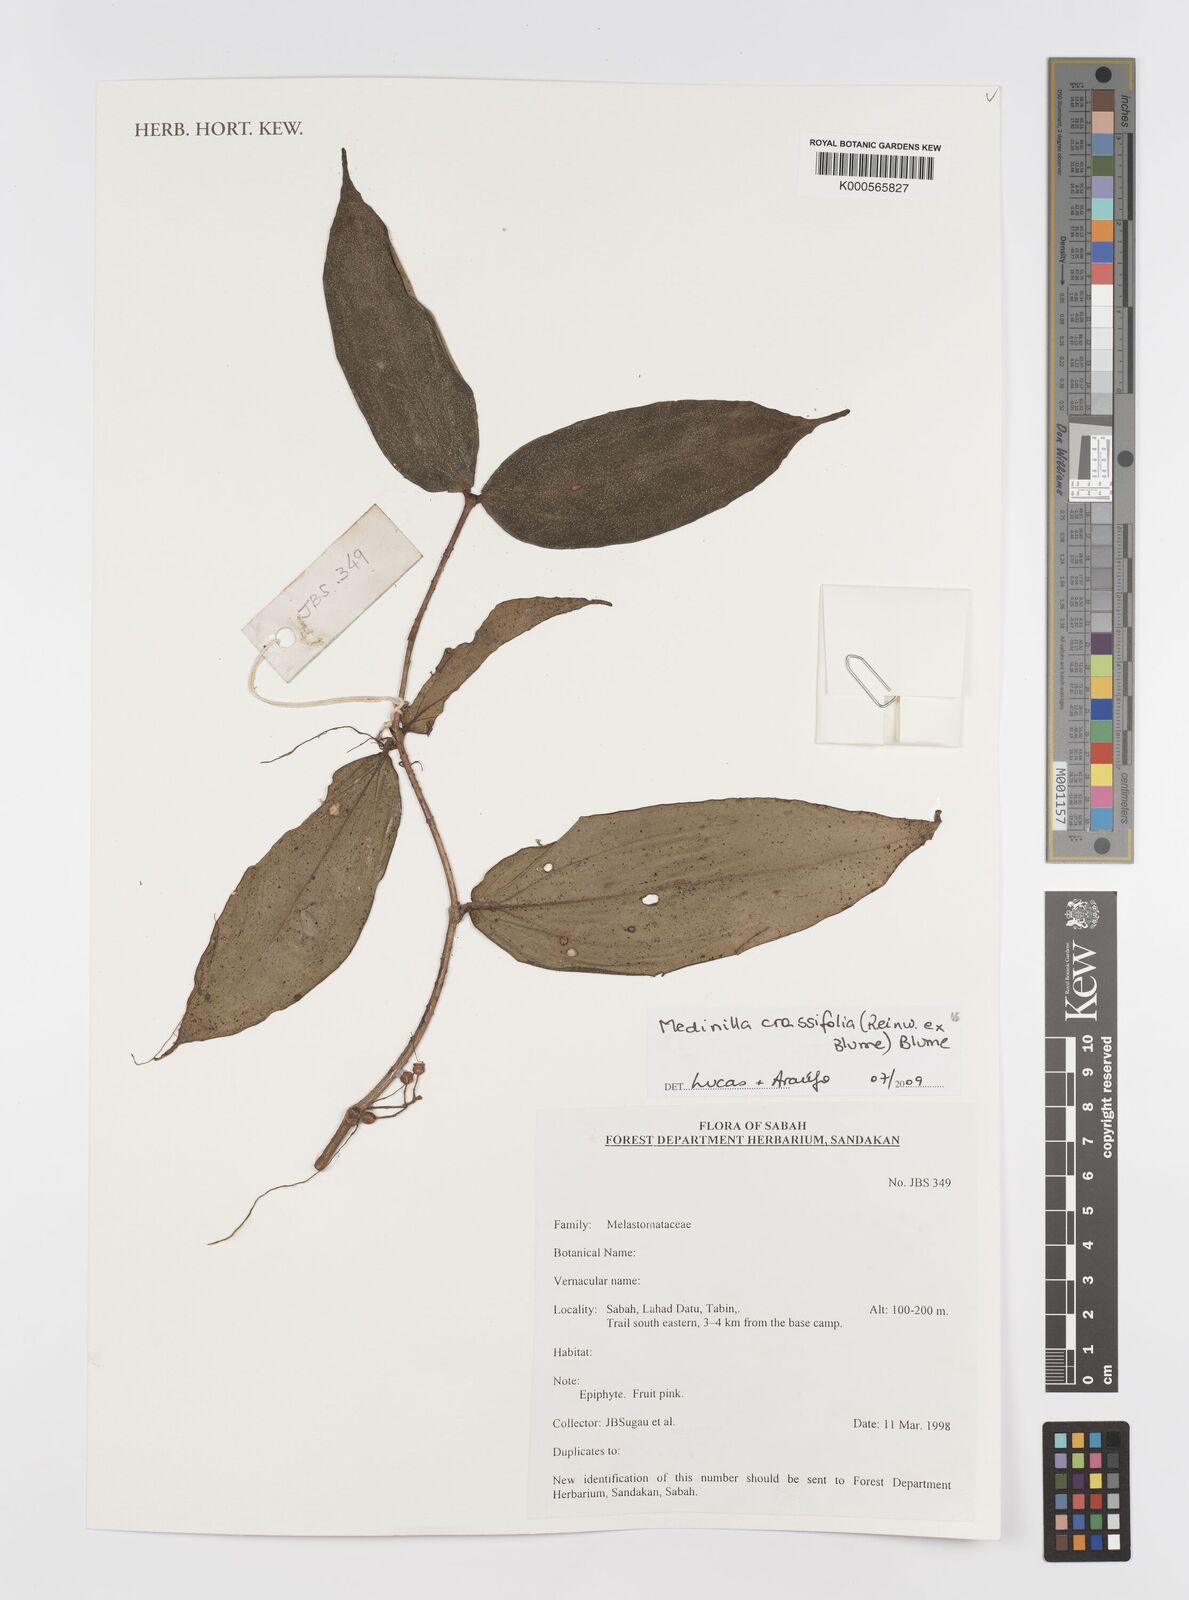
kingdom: Plantae
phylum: Tracheophyta
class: Magnoliopsida
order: Myrtales
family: Melastomataceae
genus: Medinilla
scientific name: Medinilla crassifolia
